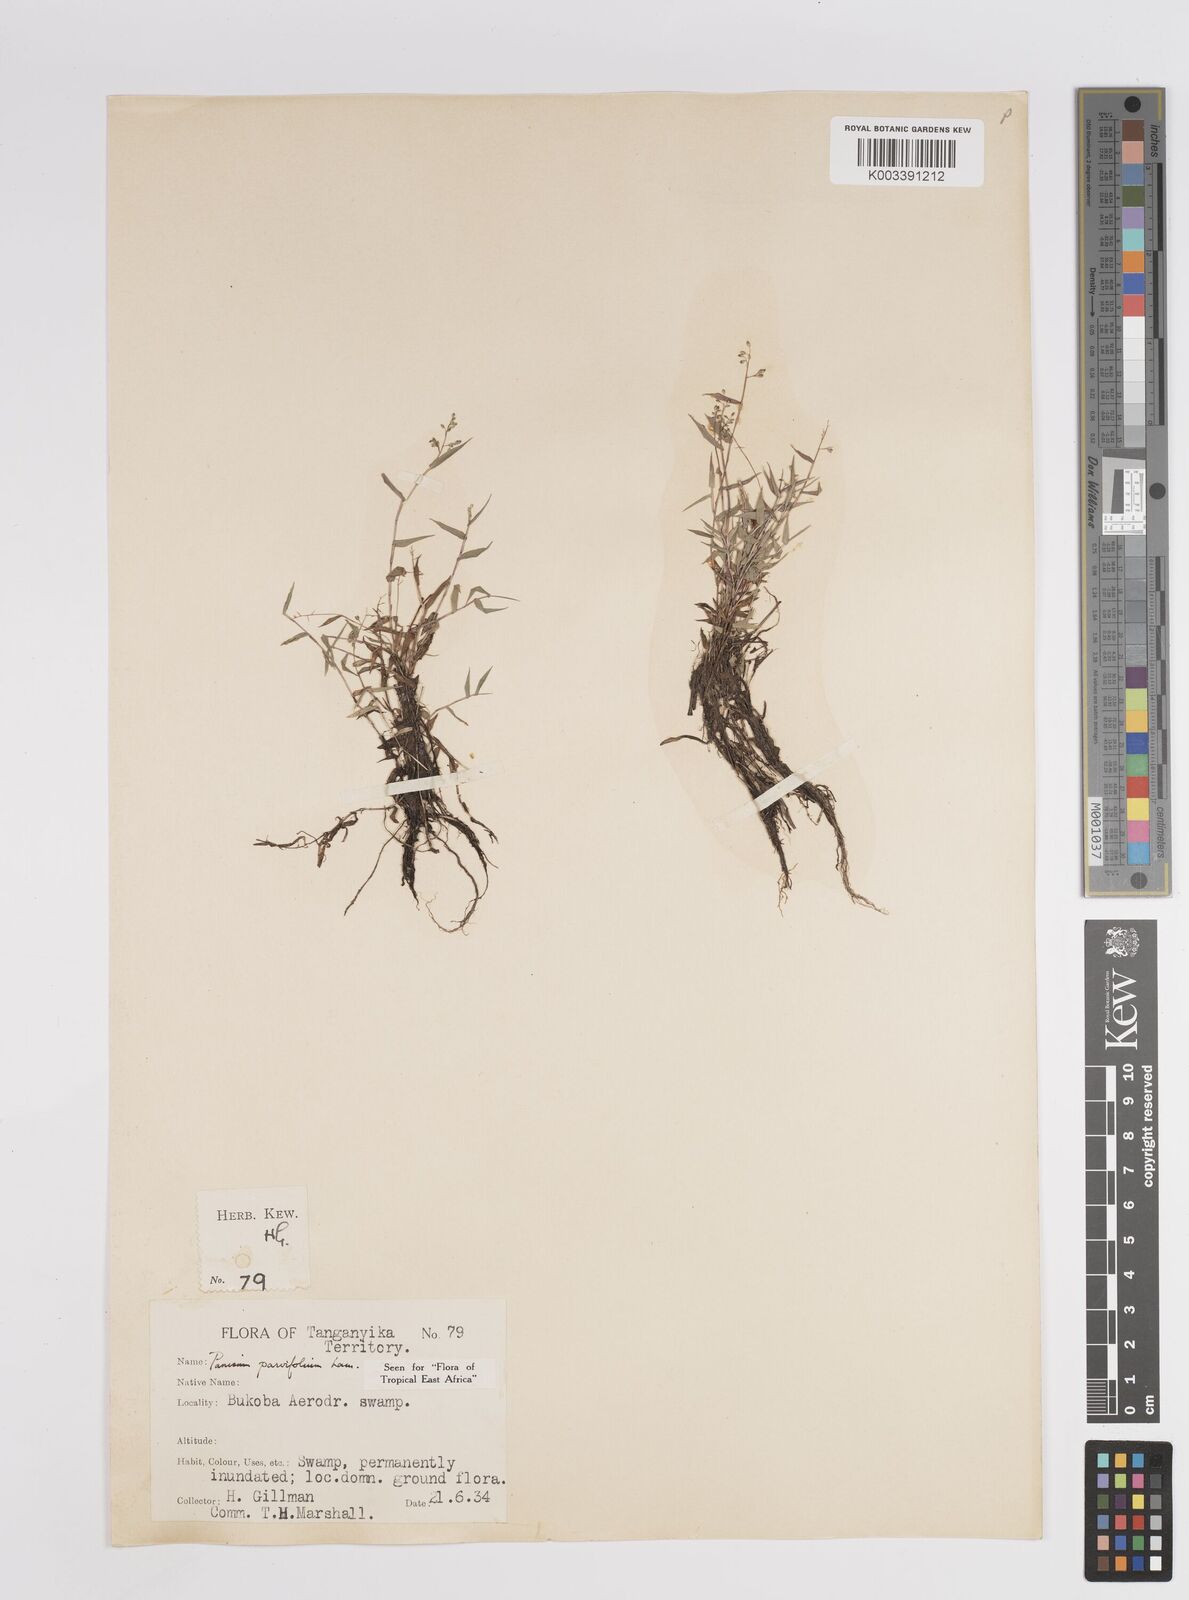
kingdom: Plantae
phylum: Tracheophyta
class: Liliopsida
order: Poales
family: Poaceae
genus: Trichanthecium
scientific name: Trichanthecium parvifolium
